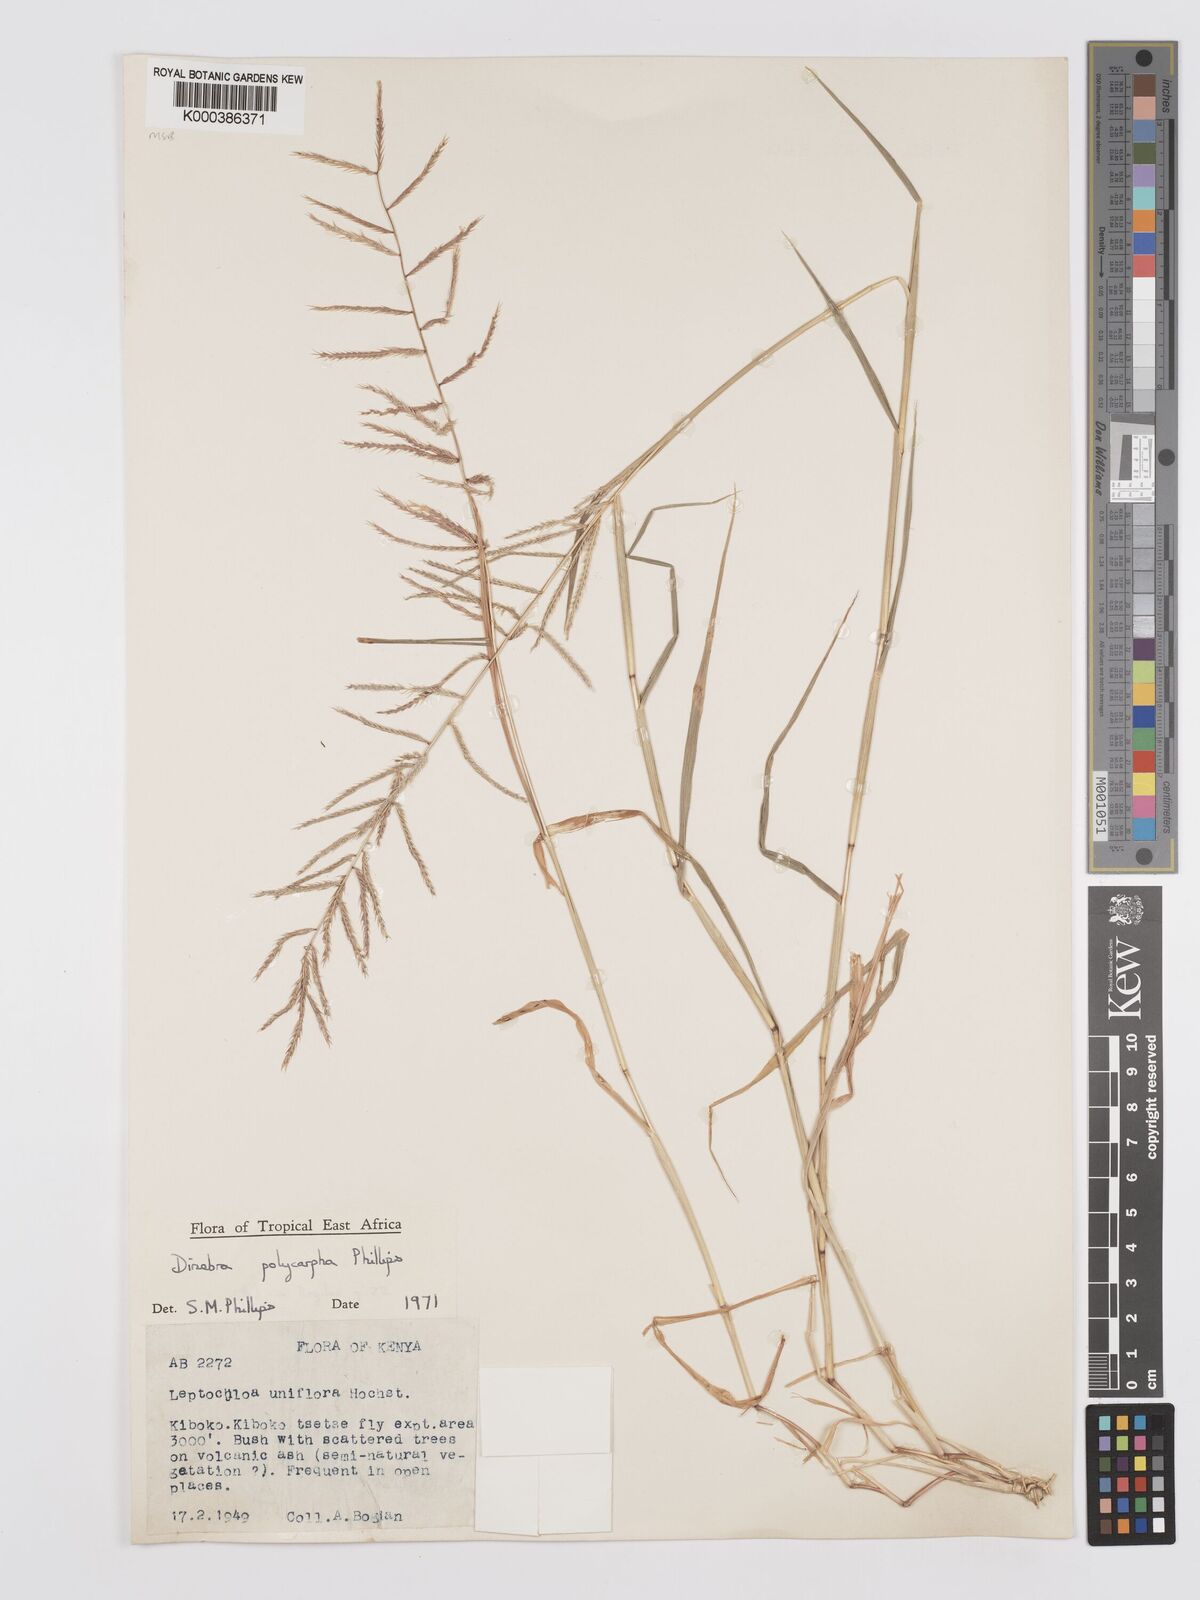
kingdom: Plantae
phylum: Tracheophyta
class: Liliopsida
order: Poales
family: Poaceae
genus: Dinebra
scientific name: Dinebra
